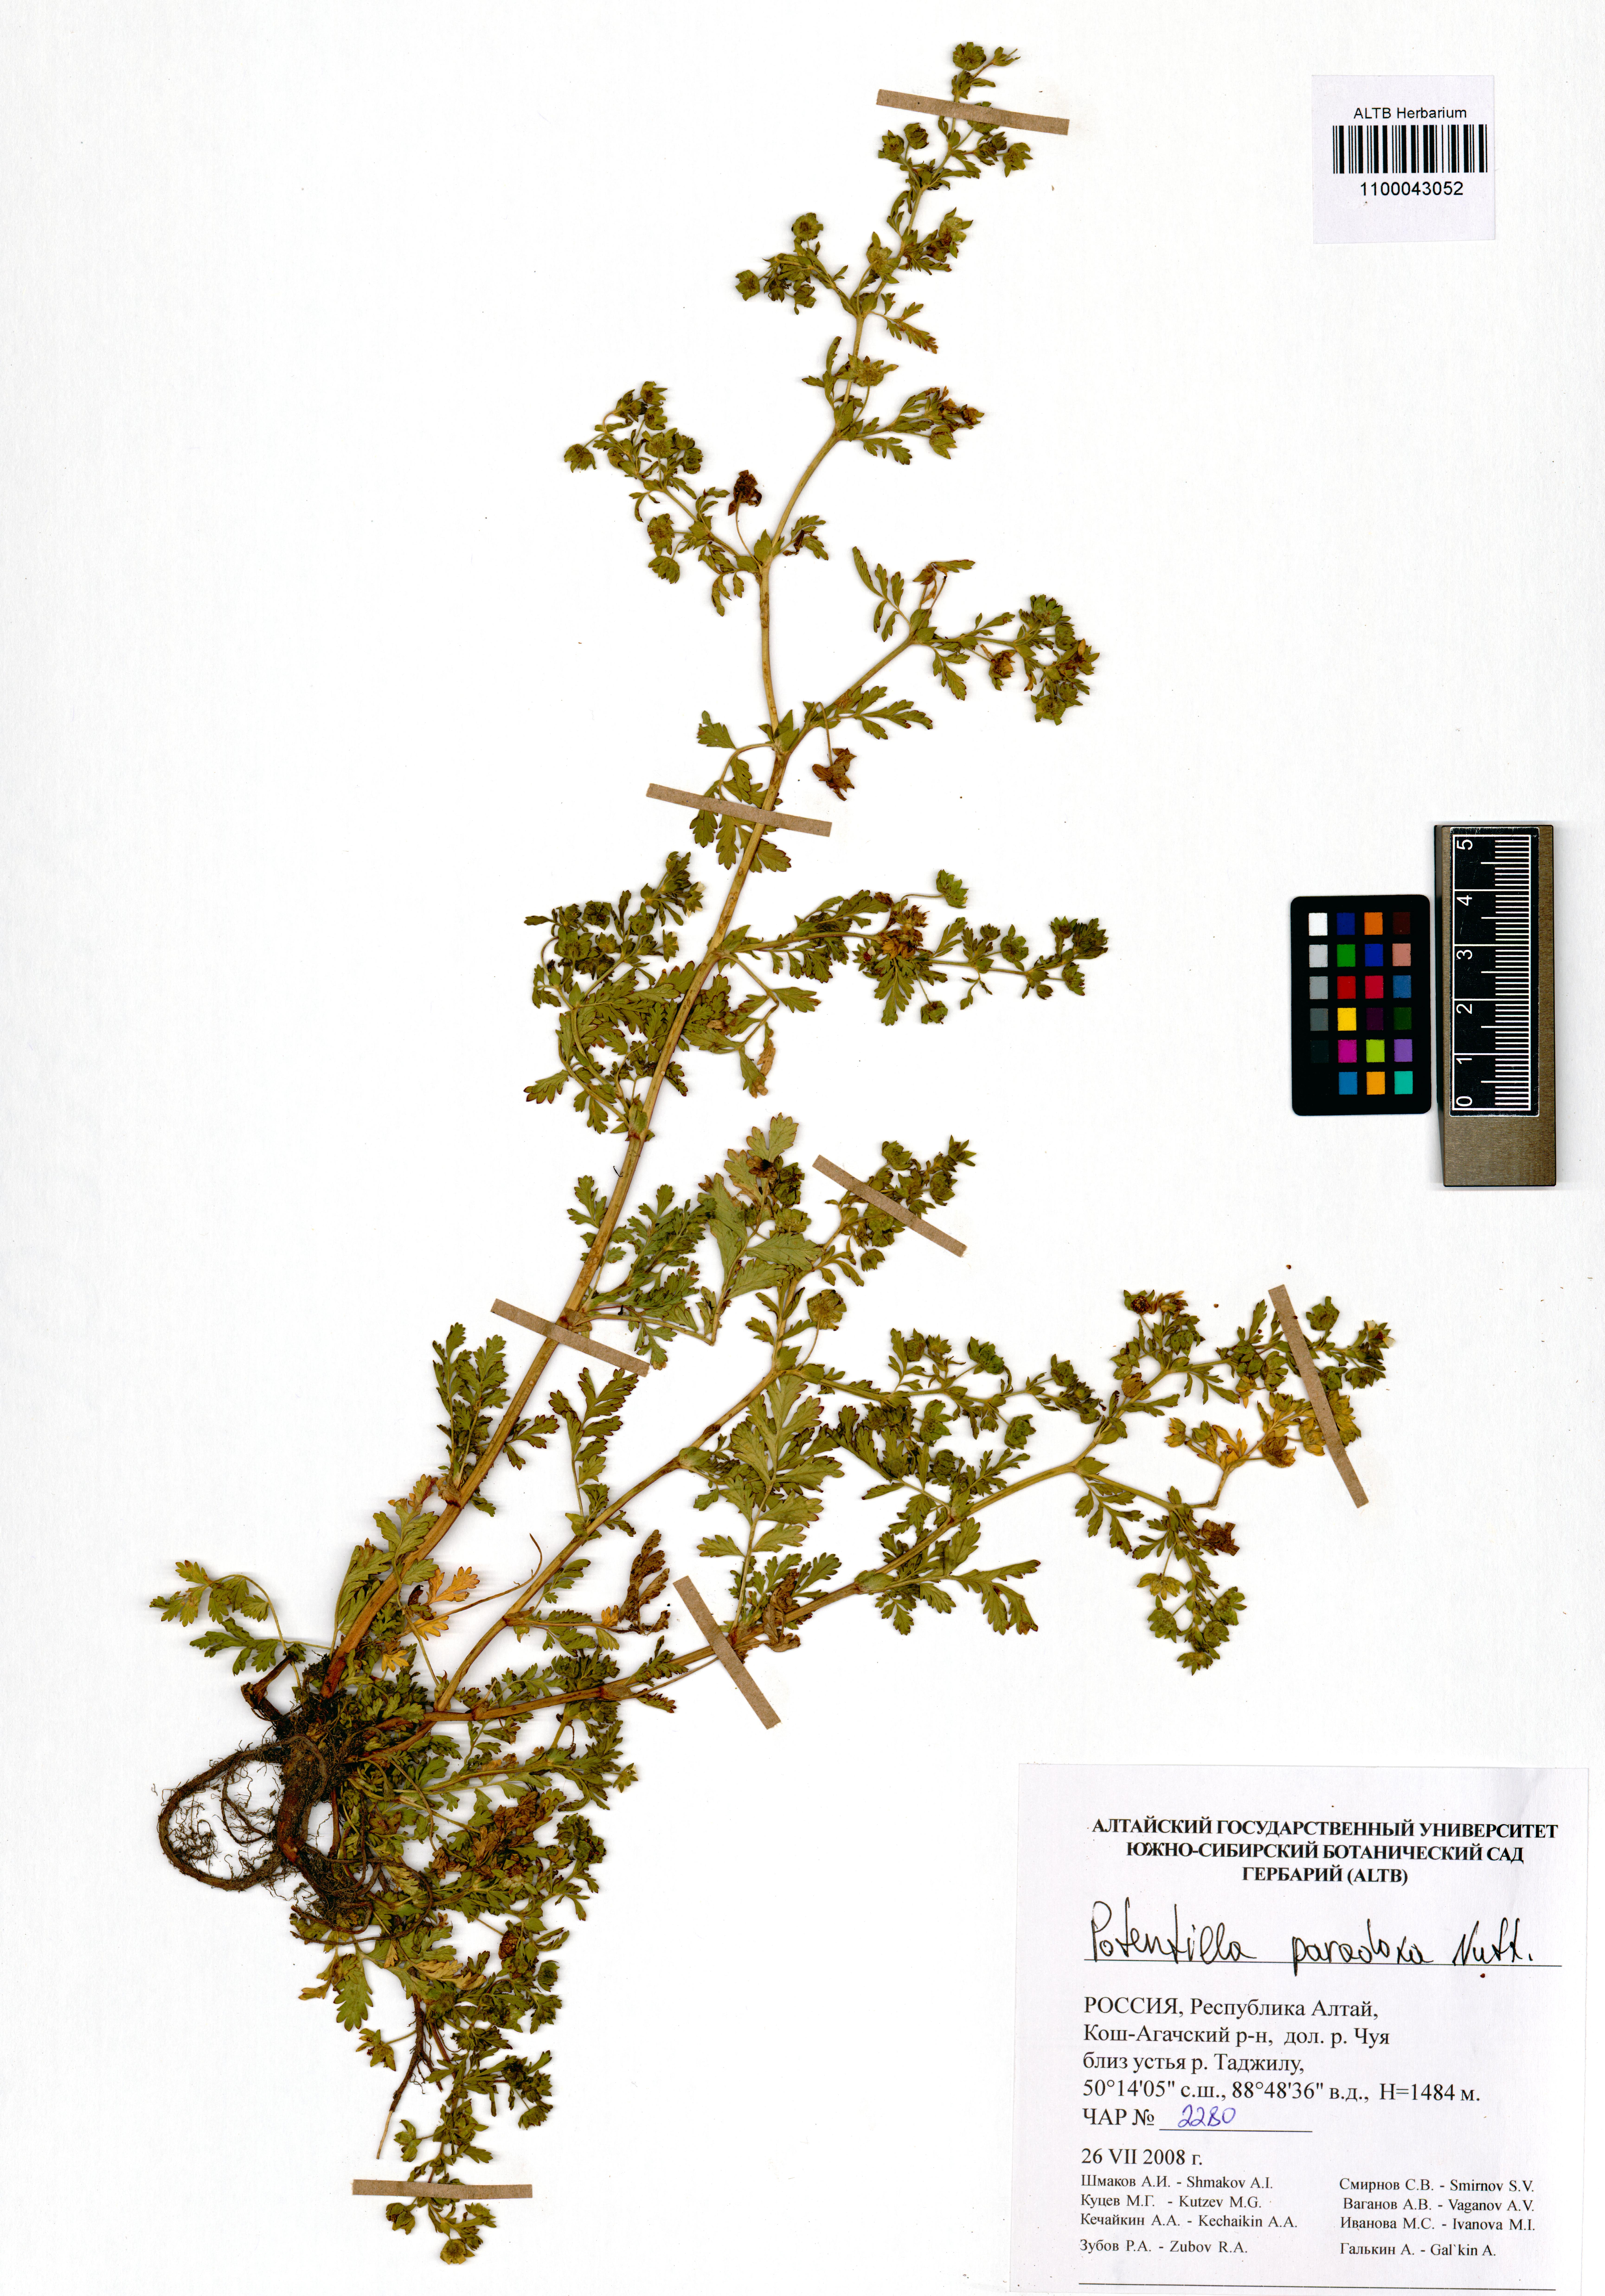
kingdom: Plantae
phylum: Tracheophyta
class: Magnoliopsida
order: Rosales
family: Rosaceae
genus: Potentilla
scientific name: Potentilla supina
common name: Prostrate cinquefoil
